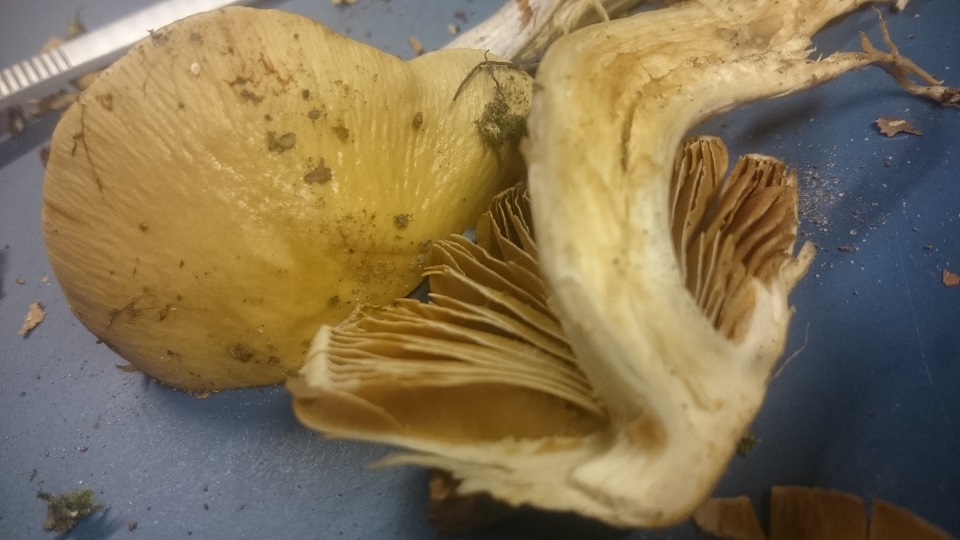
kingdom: Fungi
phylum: Basidiomycota
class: Agaricomycetes
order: Agaricales
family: Cortinariaceae
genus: Cortinarius
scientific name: Cortinarius elatior
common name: høj slørhat
